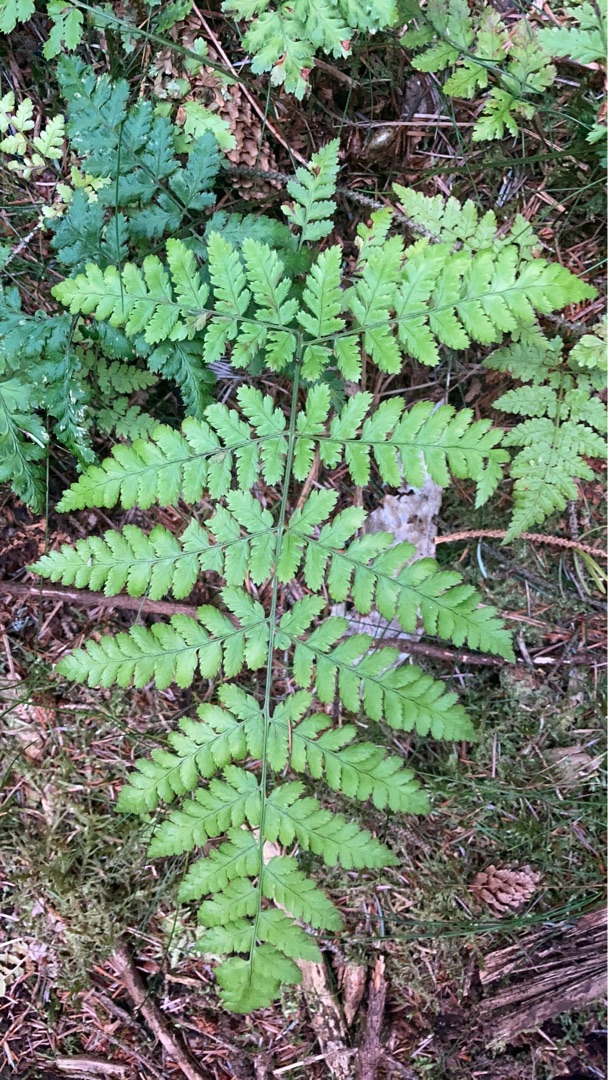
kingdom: Plantae
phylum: Tracheophyta
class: Polypodiopsida
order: Polypodiales
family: Dryopteridaceae
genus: Dryopteris
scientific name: Dryopteris
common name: Mangeløv (Dryopteris-slægten)
